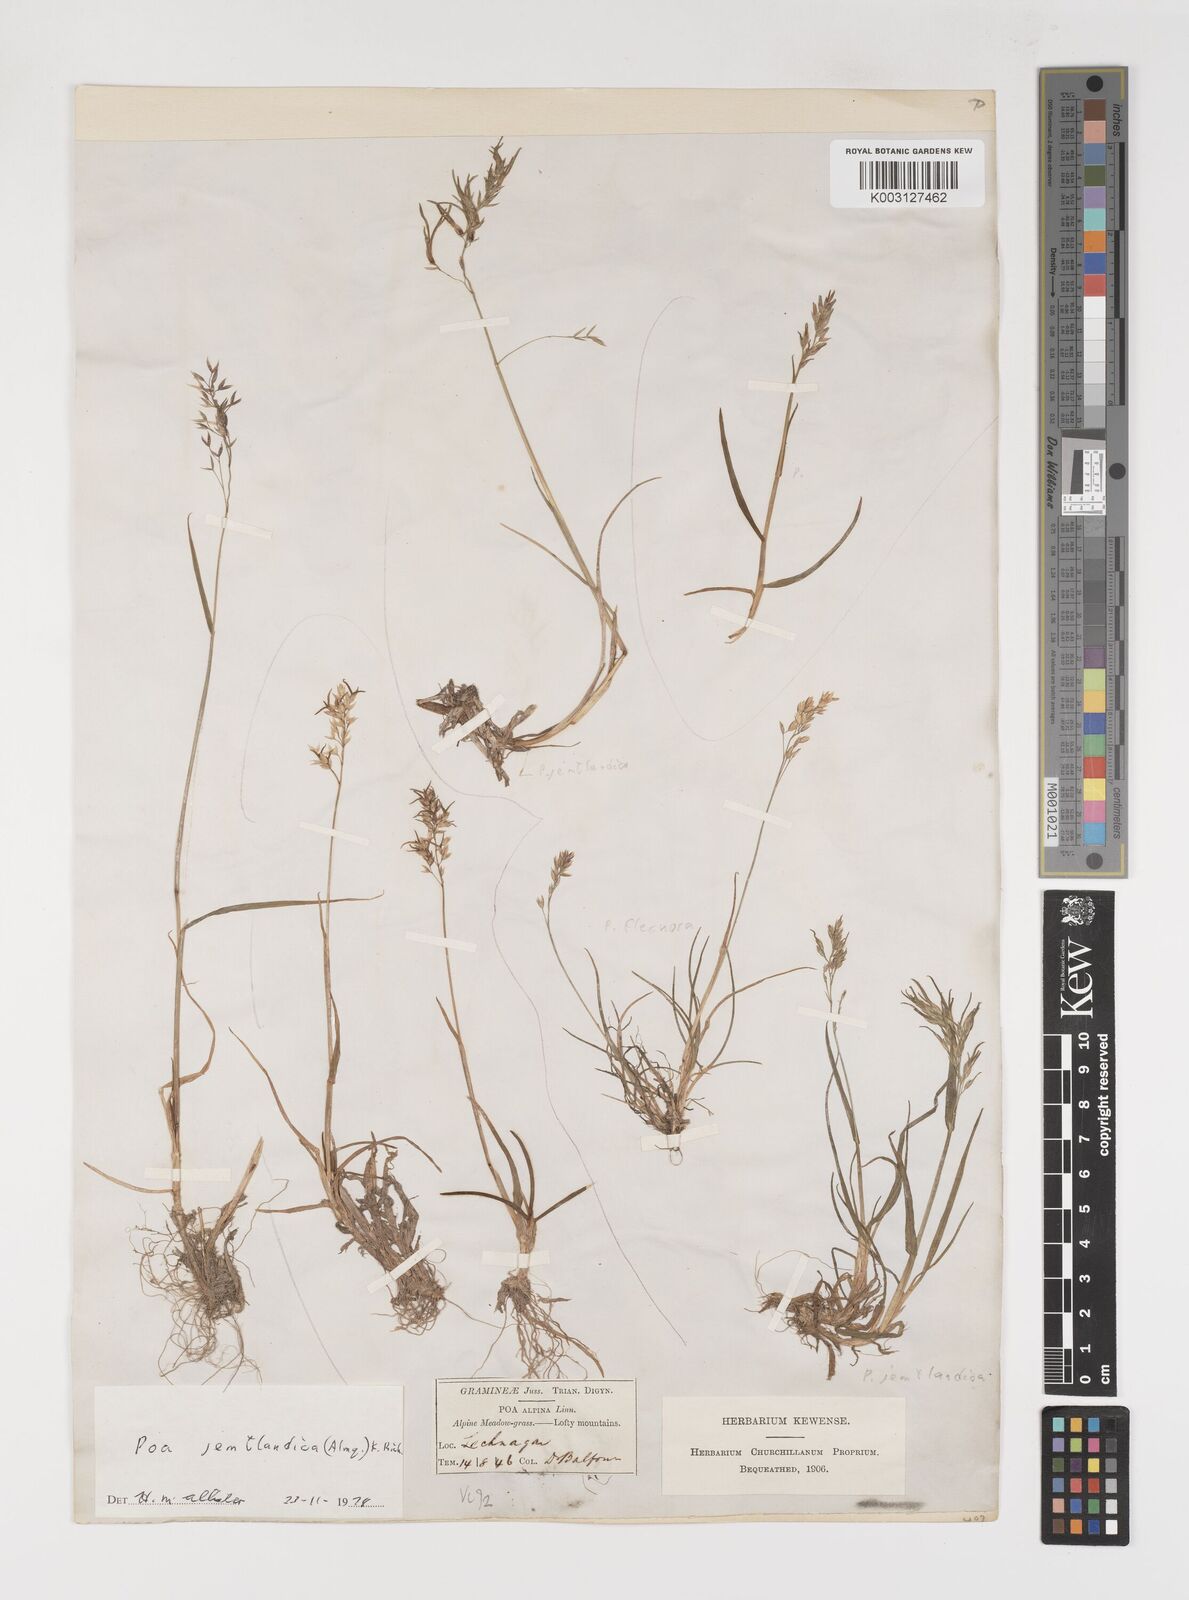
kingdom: Plantae
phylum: Tracheophyta
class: Liliopsida
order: Poales
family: Poaceae
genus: Poa
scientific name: Poa jemtlandica
